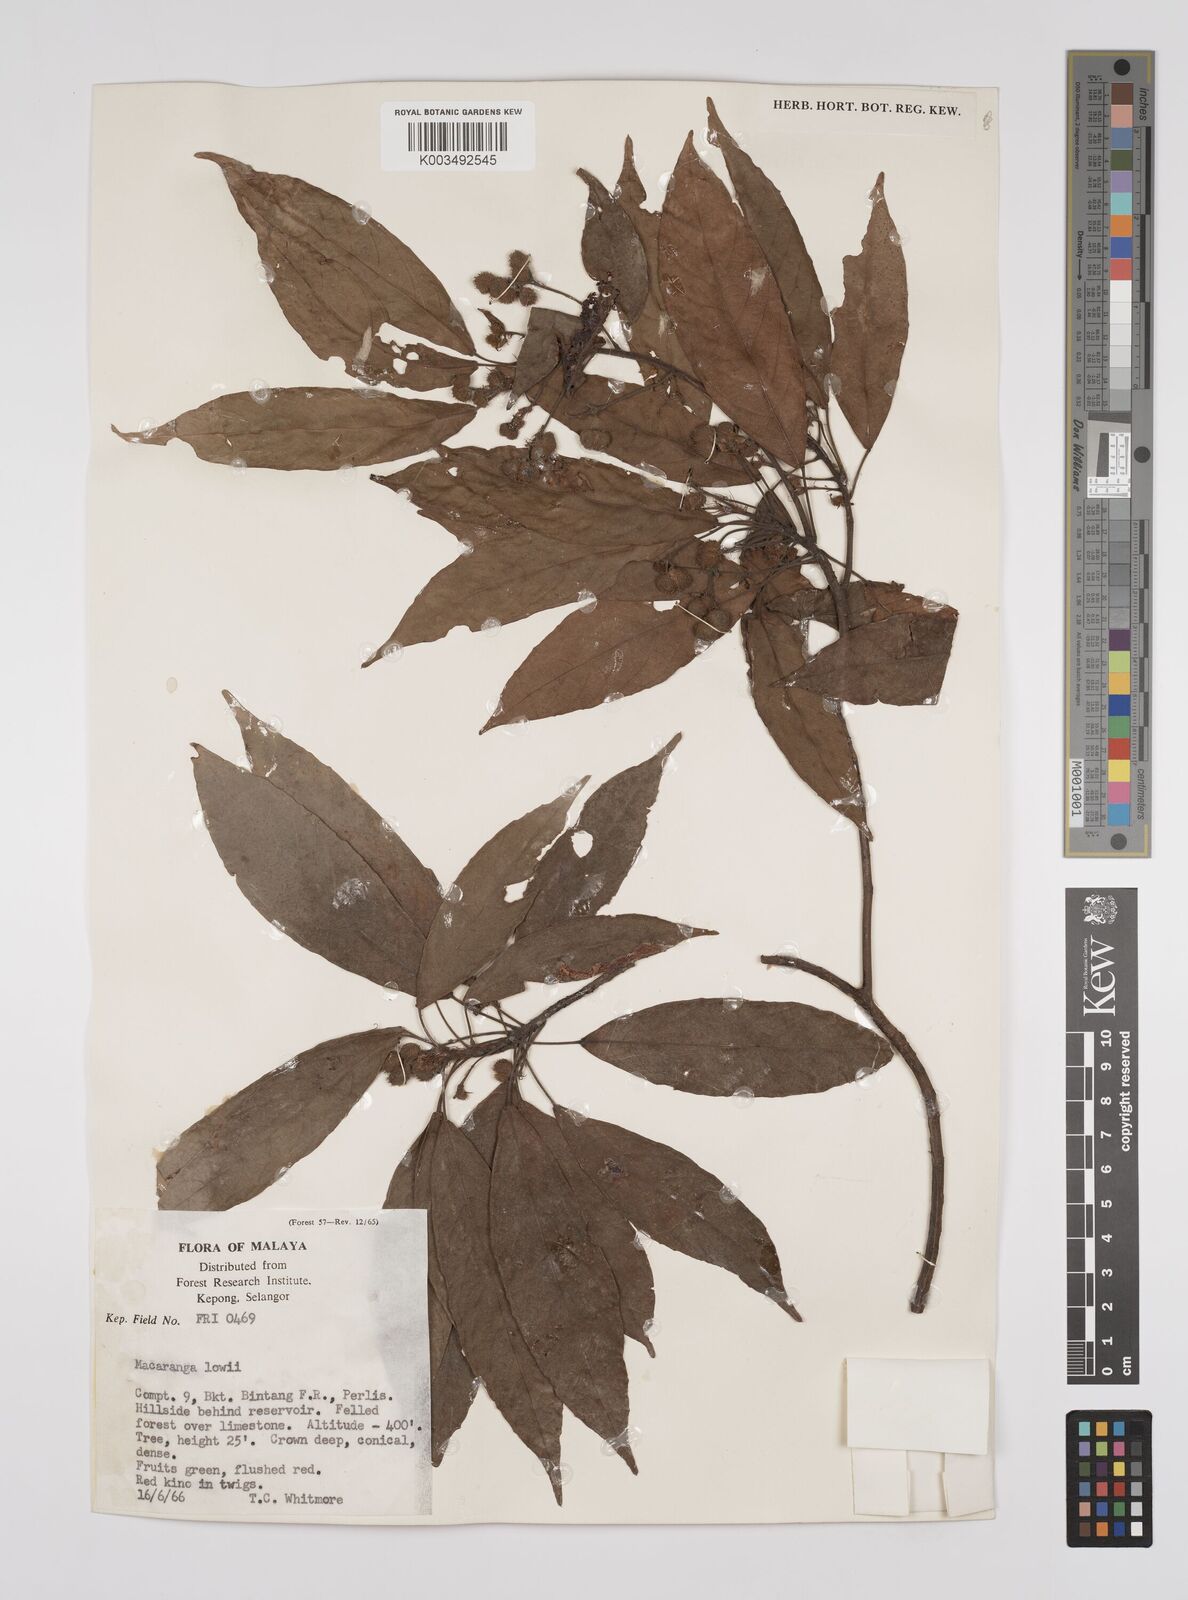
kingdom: Plantae
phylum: Tracheophyta
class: Magnoliopsida
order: Malpighiales
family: Euphorbiaceae
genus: Macaranga
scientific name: Macaranga lowii
